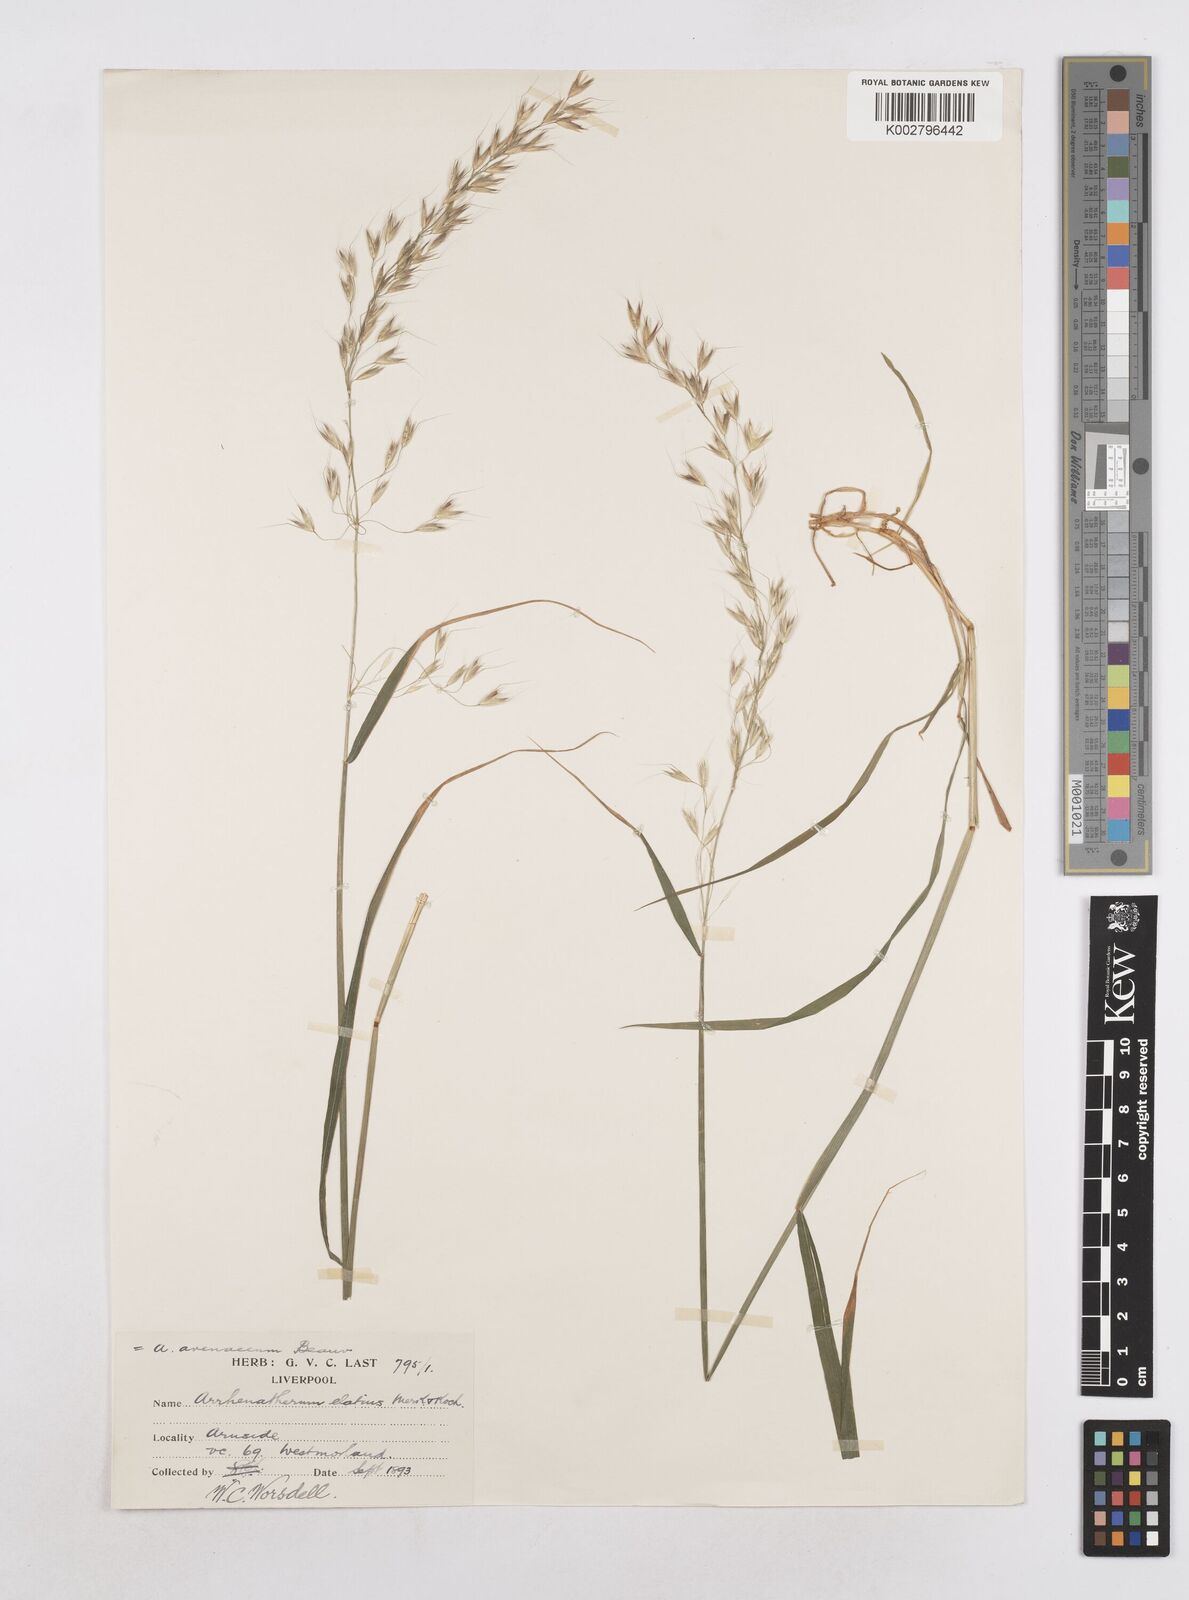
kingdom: Plantae
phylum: Tracheophyta
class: Liliopsida
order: Poales
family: Poaceae
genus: Arrhenatherum
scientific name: Arrhenatherum elatius
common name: Tall oatgrass
